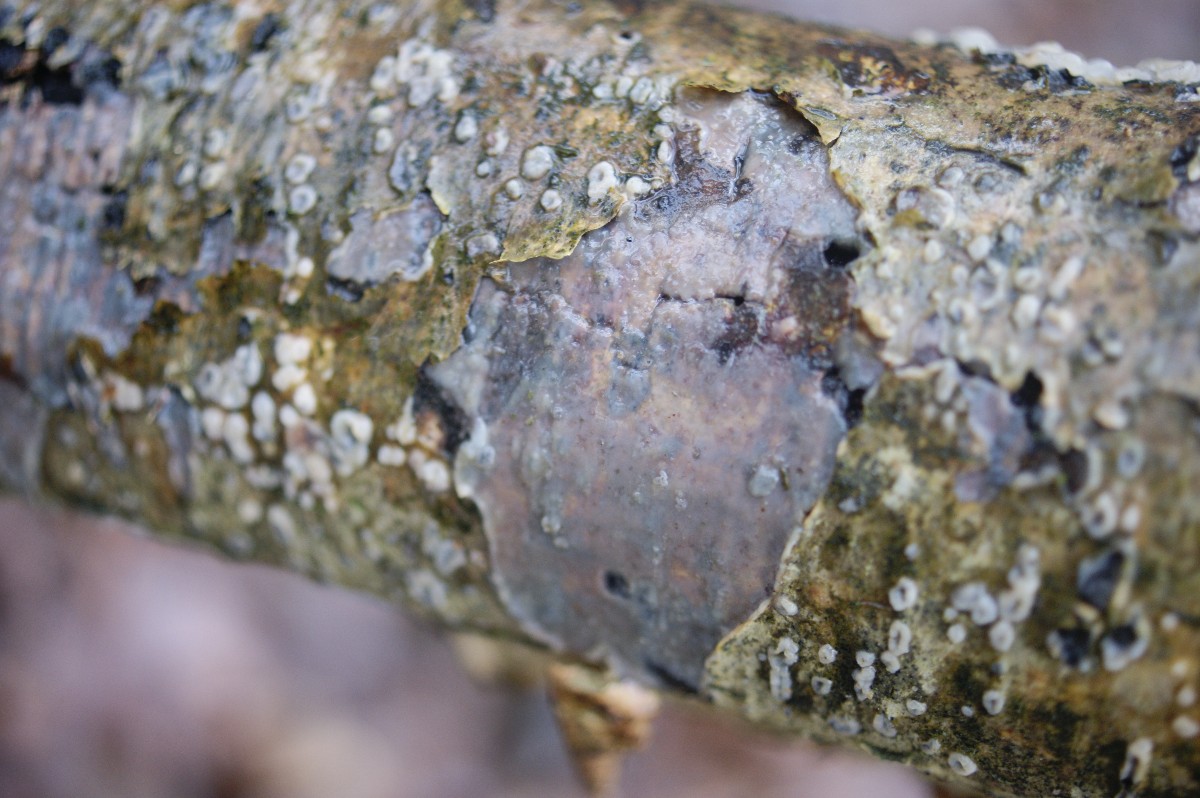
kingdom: Fungi
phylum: Basidiomycota
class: Agaricomycetes
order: Corticiales
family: Vuilleminiaceae
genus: Vuilleminia
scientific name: Vuilleminia coryli
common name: hassel-barksprænger
